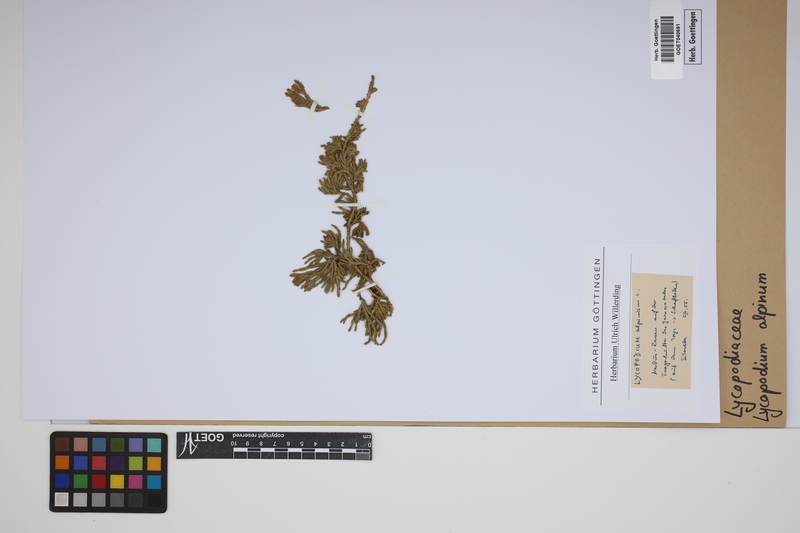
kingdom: Plantae
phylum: Tracheophyta
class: Lycopodiopsida
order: Lycopodiales
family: Lycopodiaceae
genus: Diphasiastrum
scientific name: Diphasiastrum alpinum
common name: Alpine clubmoss
